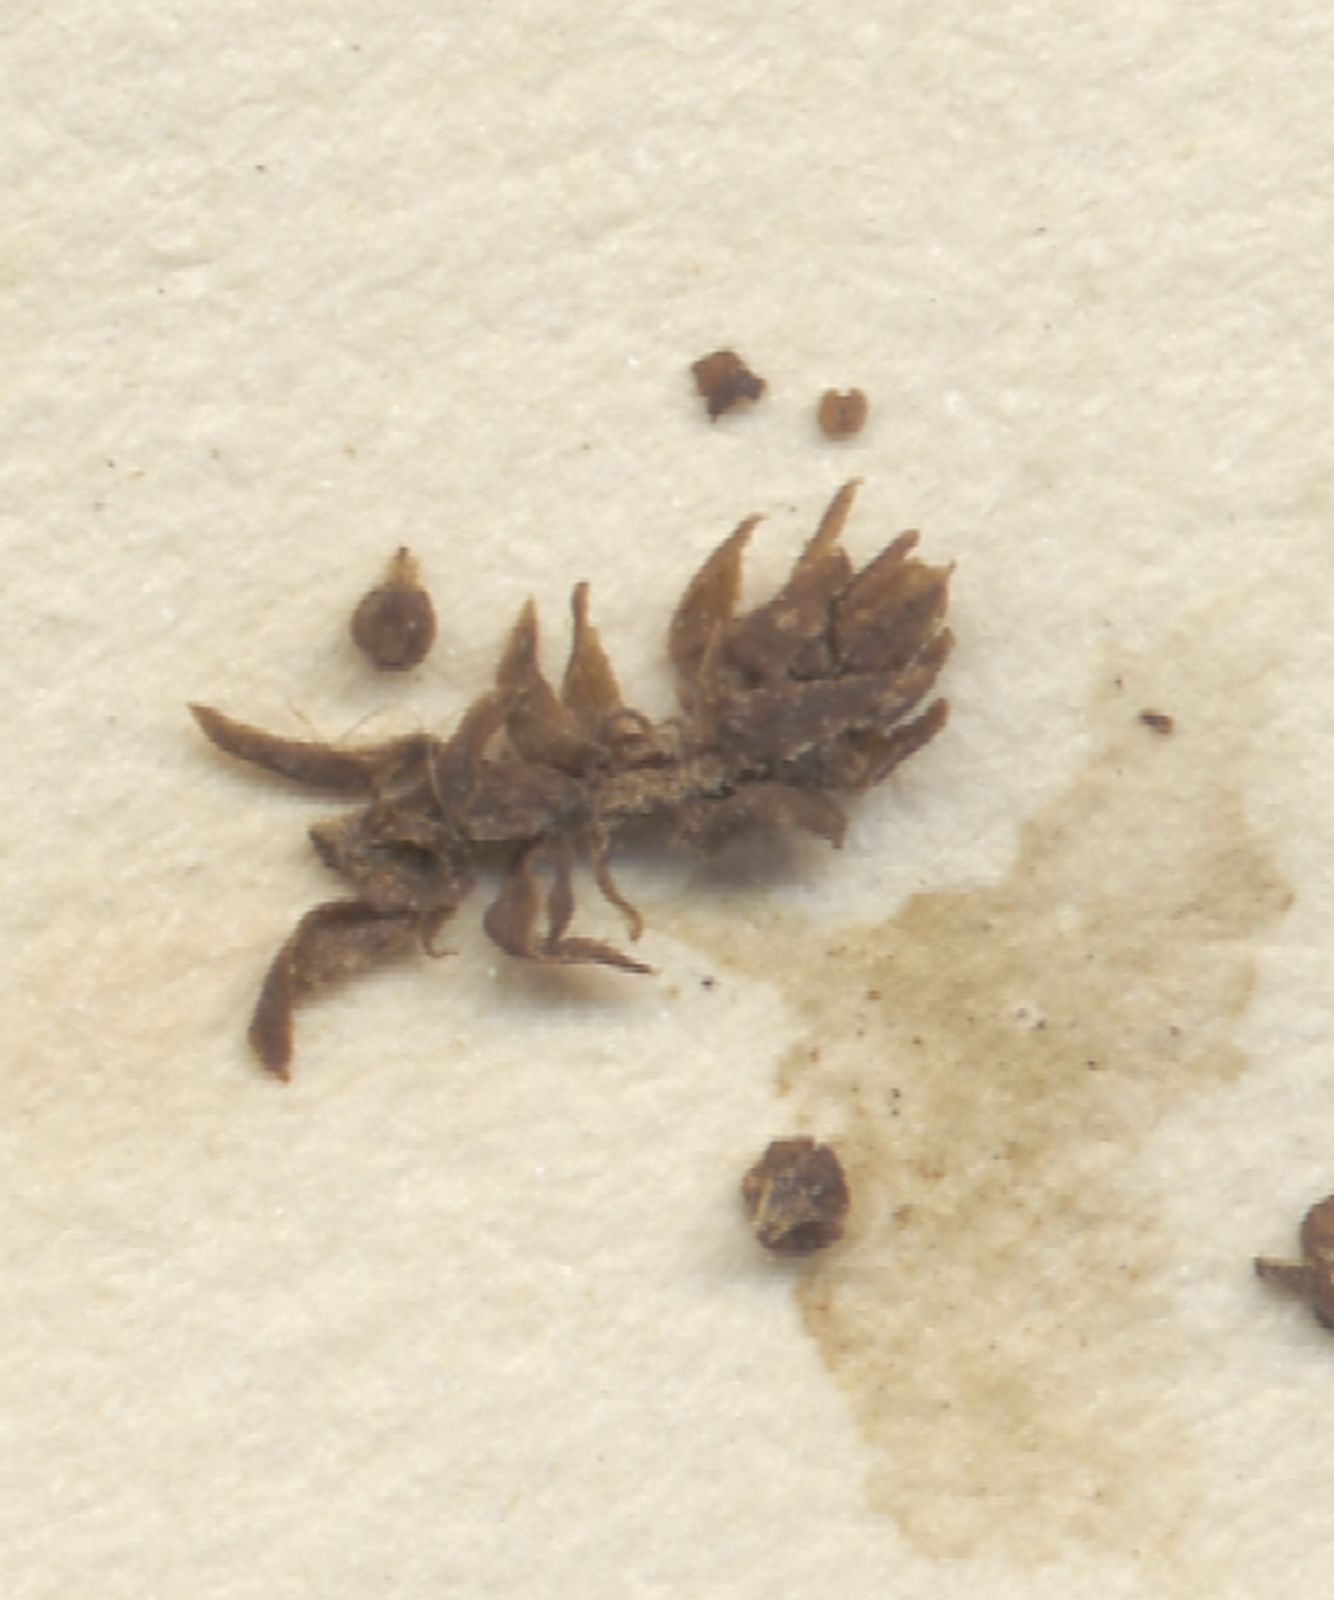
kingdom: Plantae
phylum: Tracheophyta
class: Magnoliopsida
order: Malpighiales
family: Euphorbiaceae
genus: Tragia
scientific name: Tragia durbanensis
